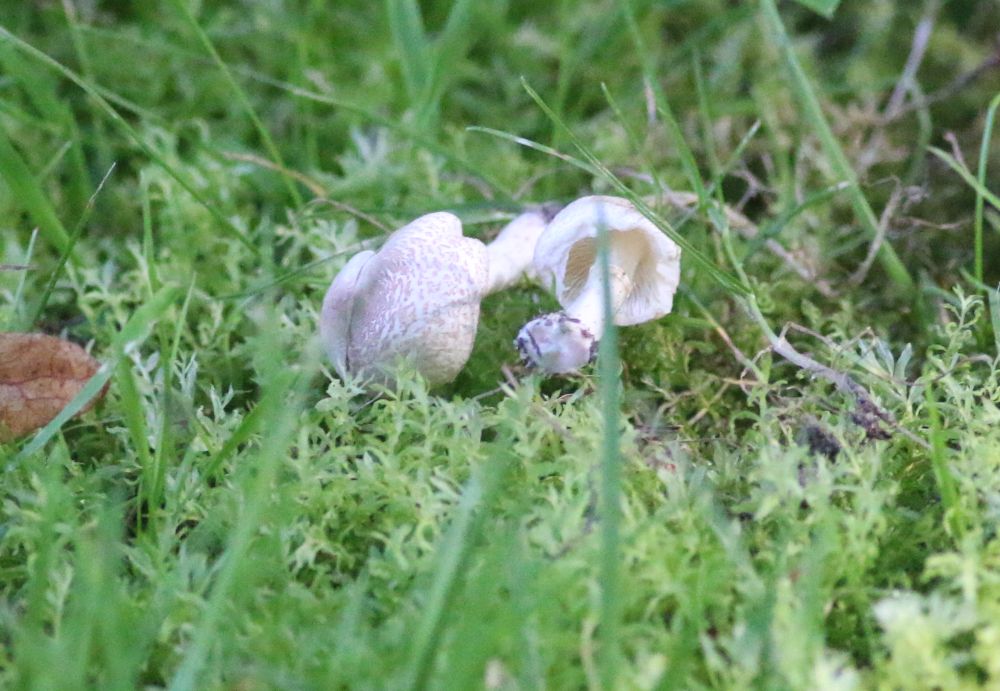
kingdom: Fungi
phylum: Basidiomycota
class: Agaricomycetes
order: Agaricales
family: Agaricaceae
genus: Lepiota
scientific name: Lepiota cristata
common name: stinkende parasolhat
